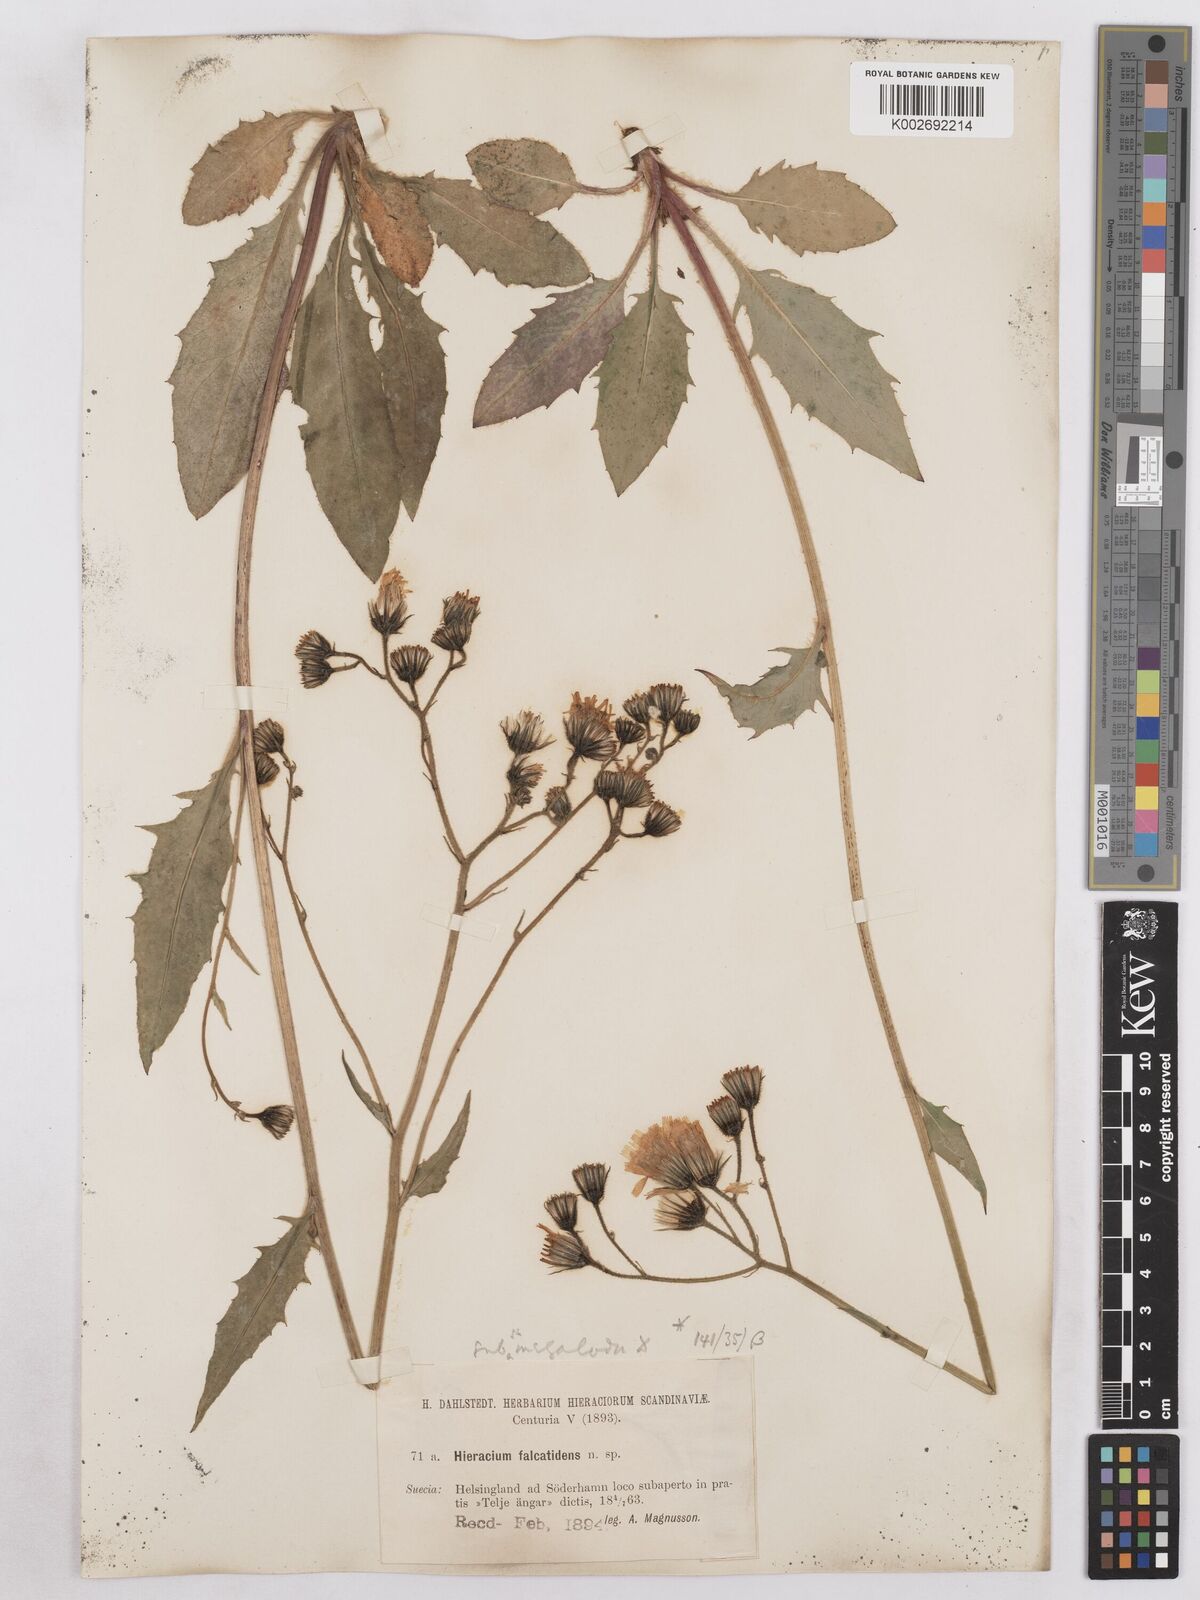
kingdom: Plantae
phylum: Tracheophyta
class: Magnoliopsida
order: Asterales
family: Asteraceae
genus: Hieracium
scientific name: Hieracium diaphanoides
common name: Fine-bracted hawkweed
